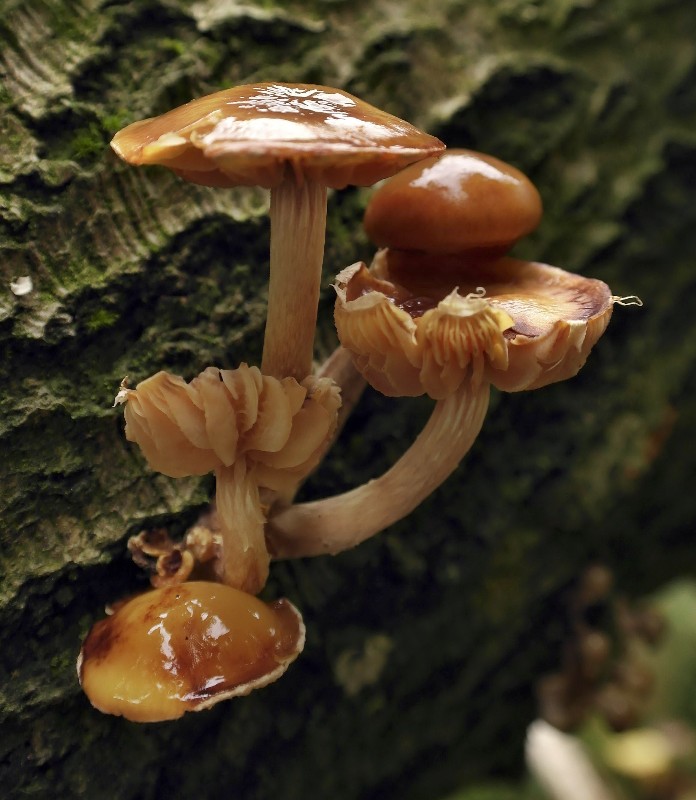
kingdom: Fungi
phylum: Basidiomycota
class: Agaricomycetes
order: Agaricales
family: Tubariaceae
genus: Cyclocybe
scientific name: Cyclocybe erebia
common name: mørk agerhat
